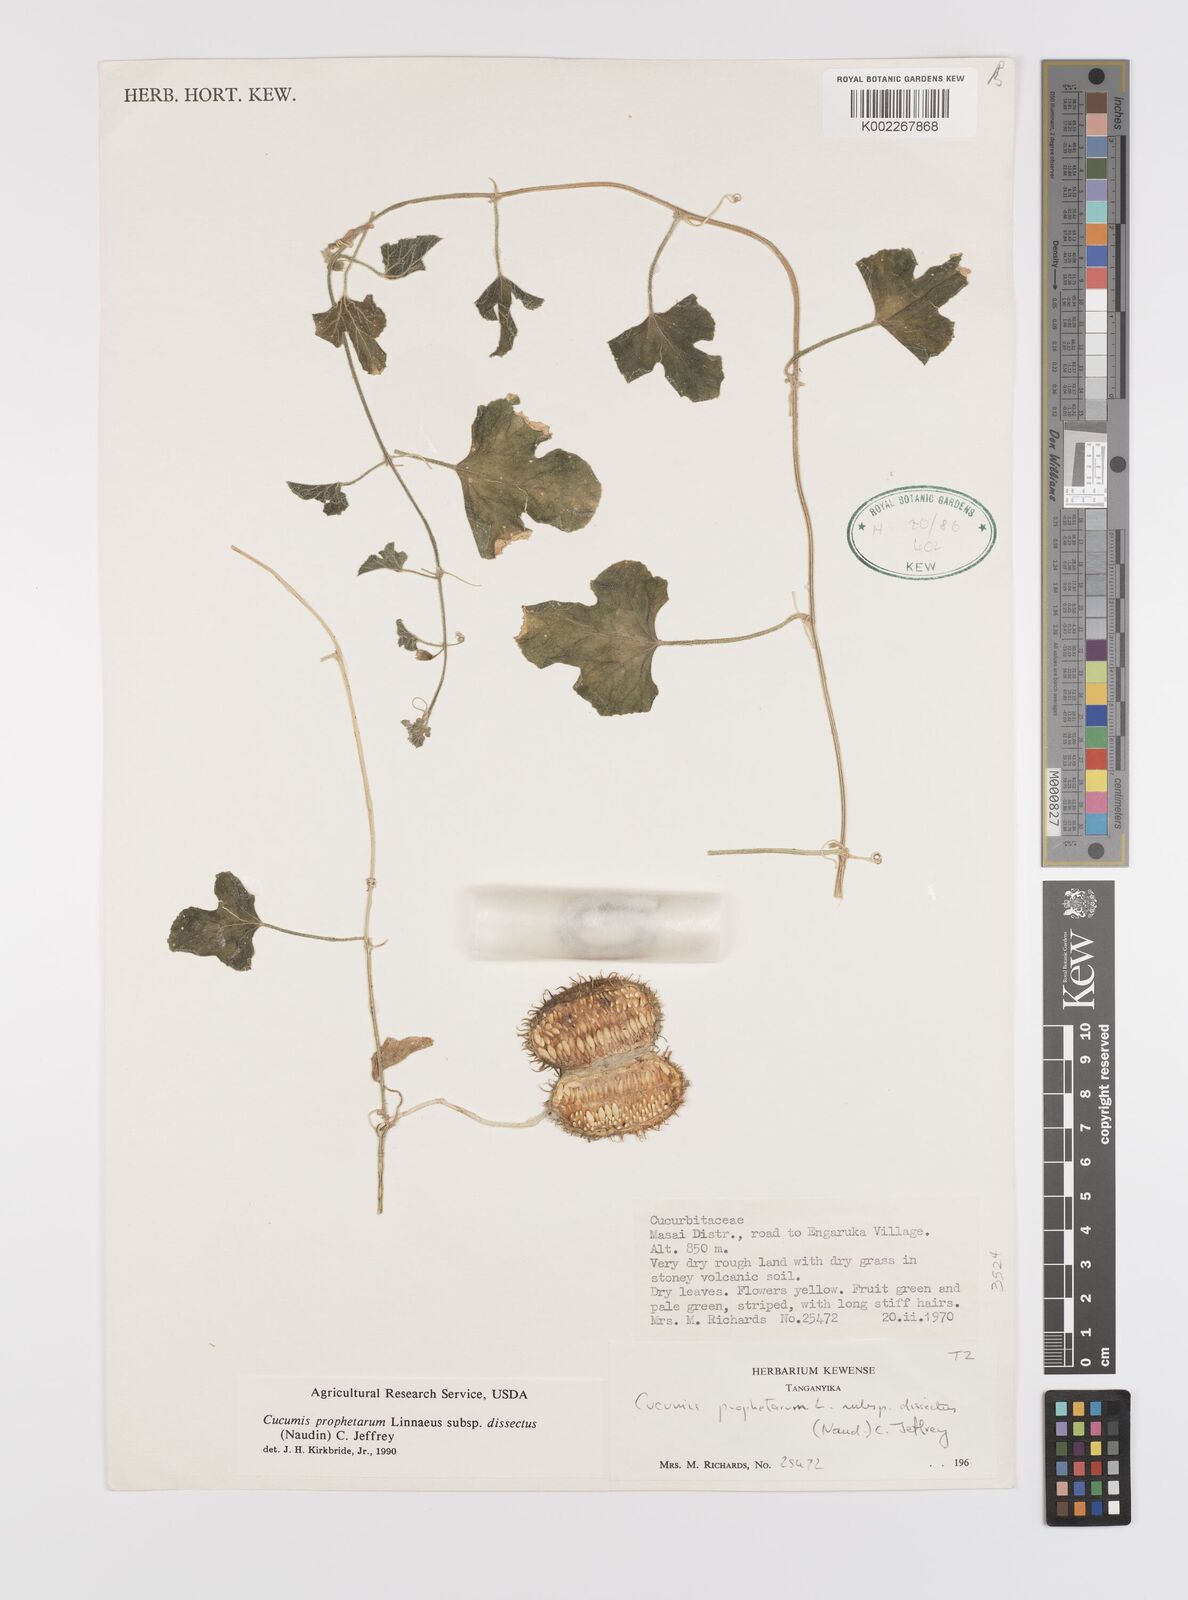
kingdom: Plantae
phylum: Tracheophyta
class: Magnoliopsida
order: Cucurbitales
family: Cucurbitaceae
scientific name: Cucurbitaceae
